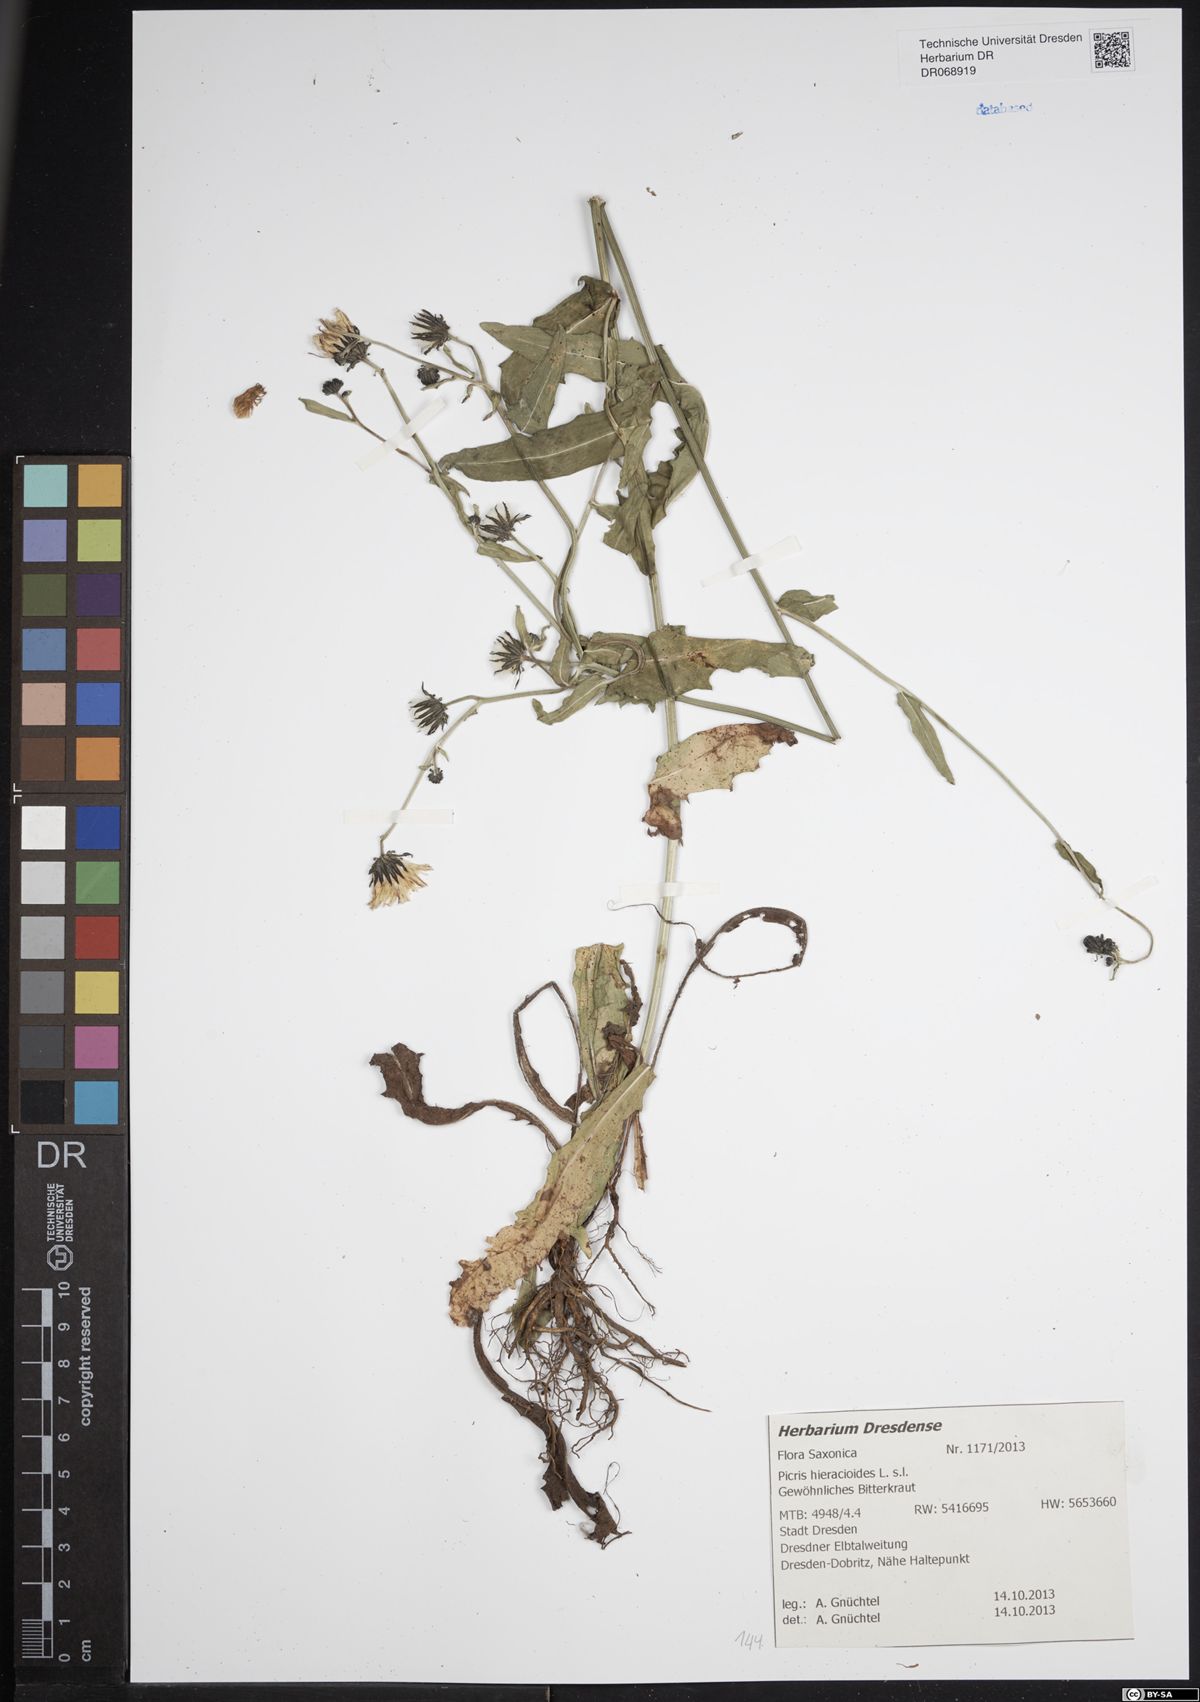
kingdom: Plantae
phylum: Tracheophyta
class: Magnoliopsida
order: Asterales
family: Asteraceae
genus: Picris
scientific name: Picris hieracioides
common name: Hawkweed oxtongue
